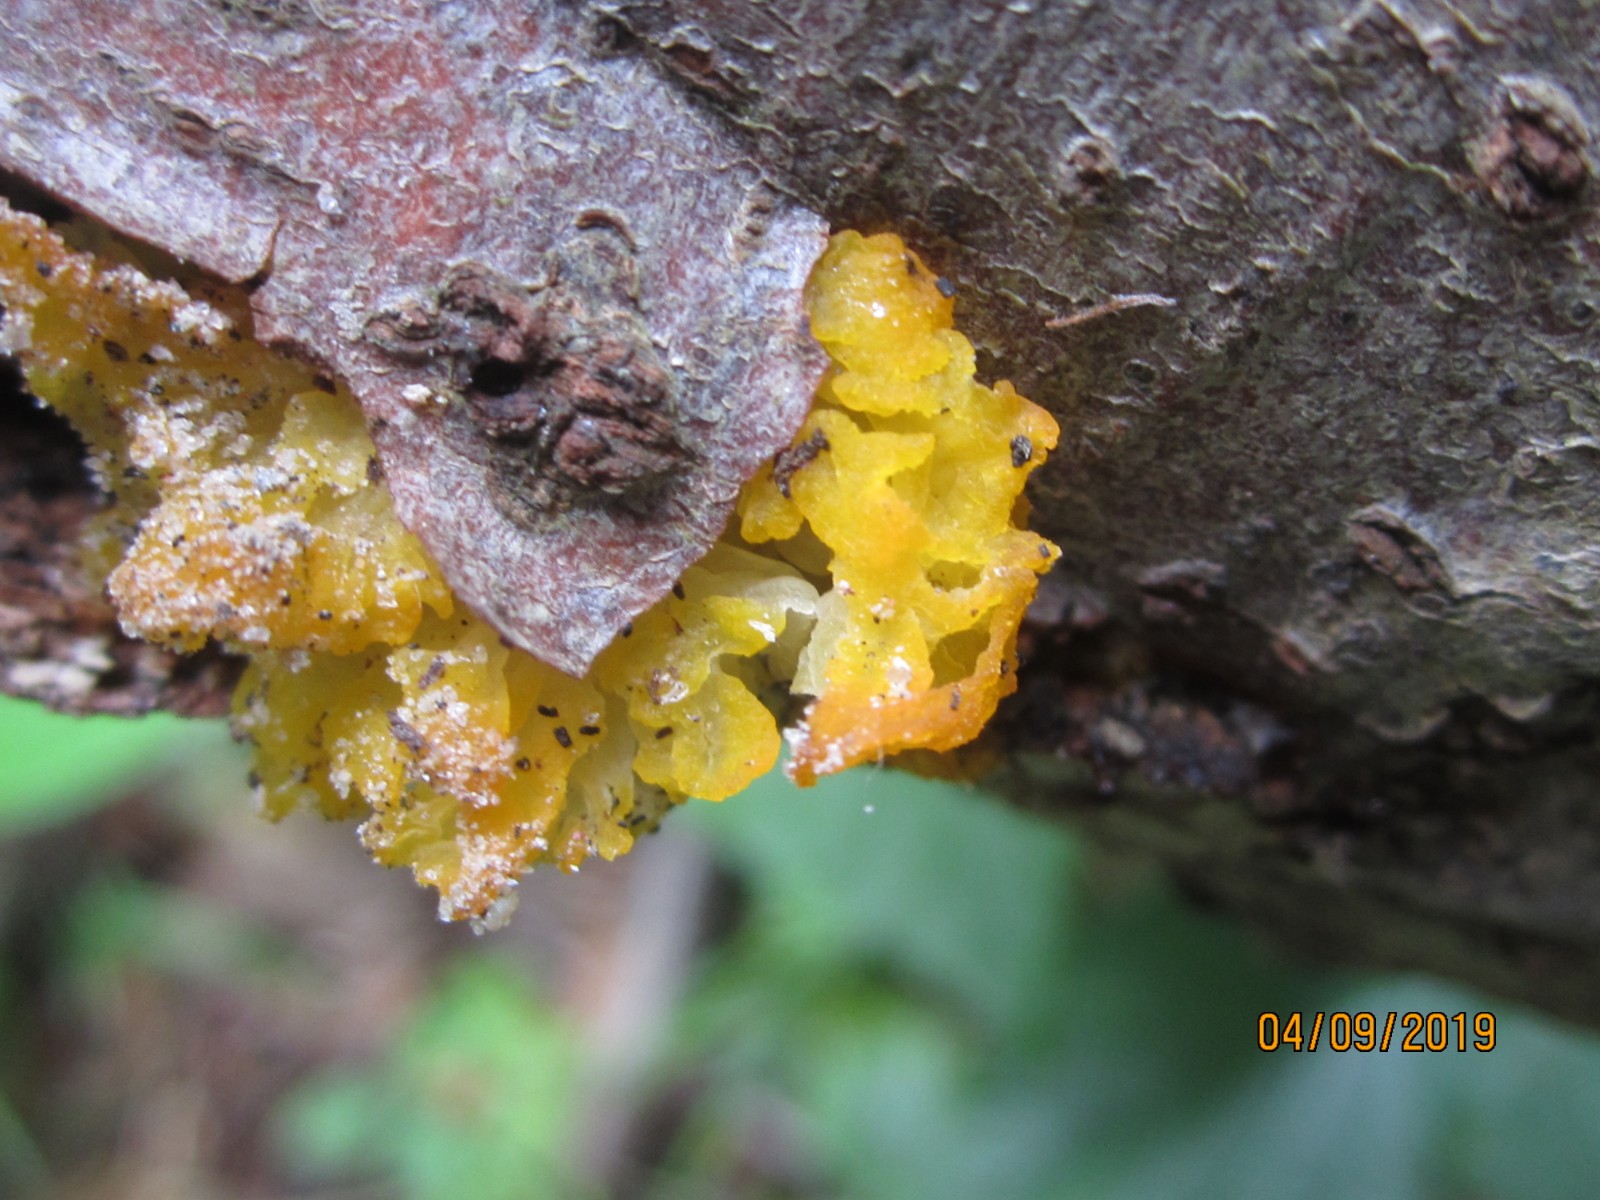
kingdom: Fungi
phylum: Basidiomycota
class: Tremellomycetes
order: Tremellales
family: Tremellaceae
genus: Tremella
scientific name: Tremella mesenterica
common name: gul bævresvamp
